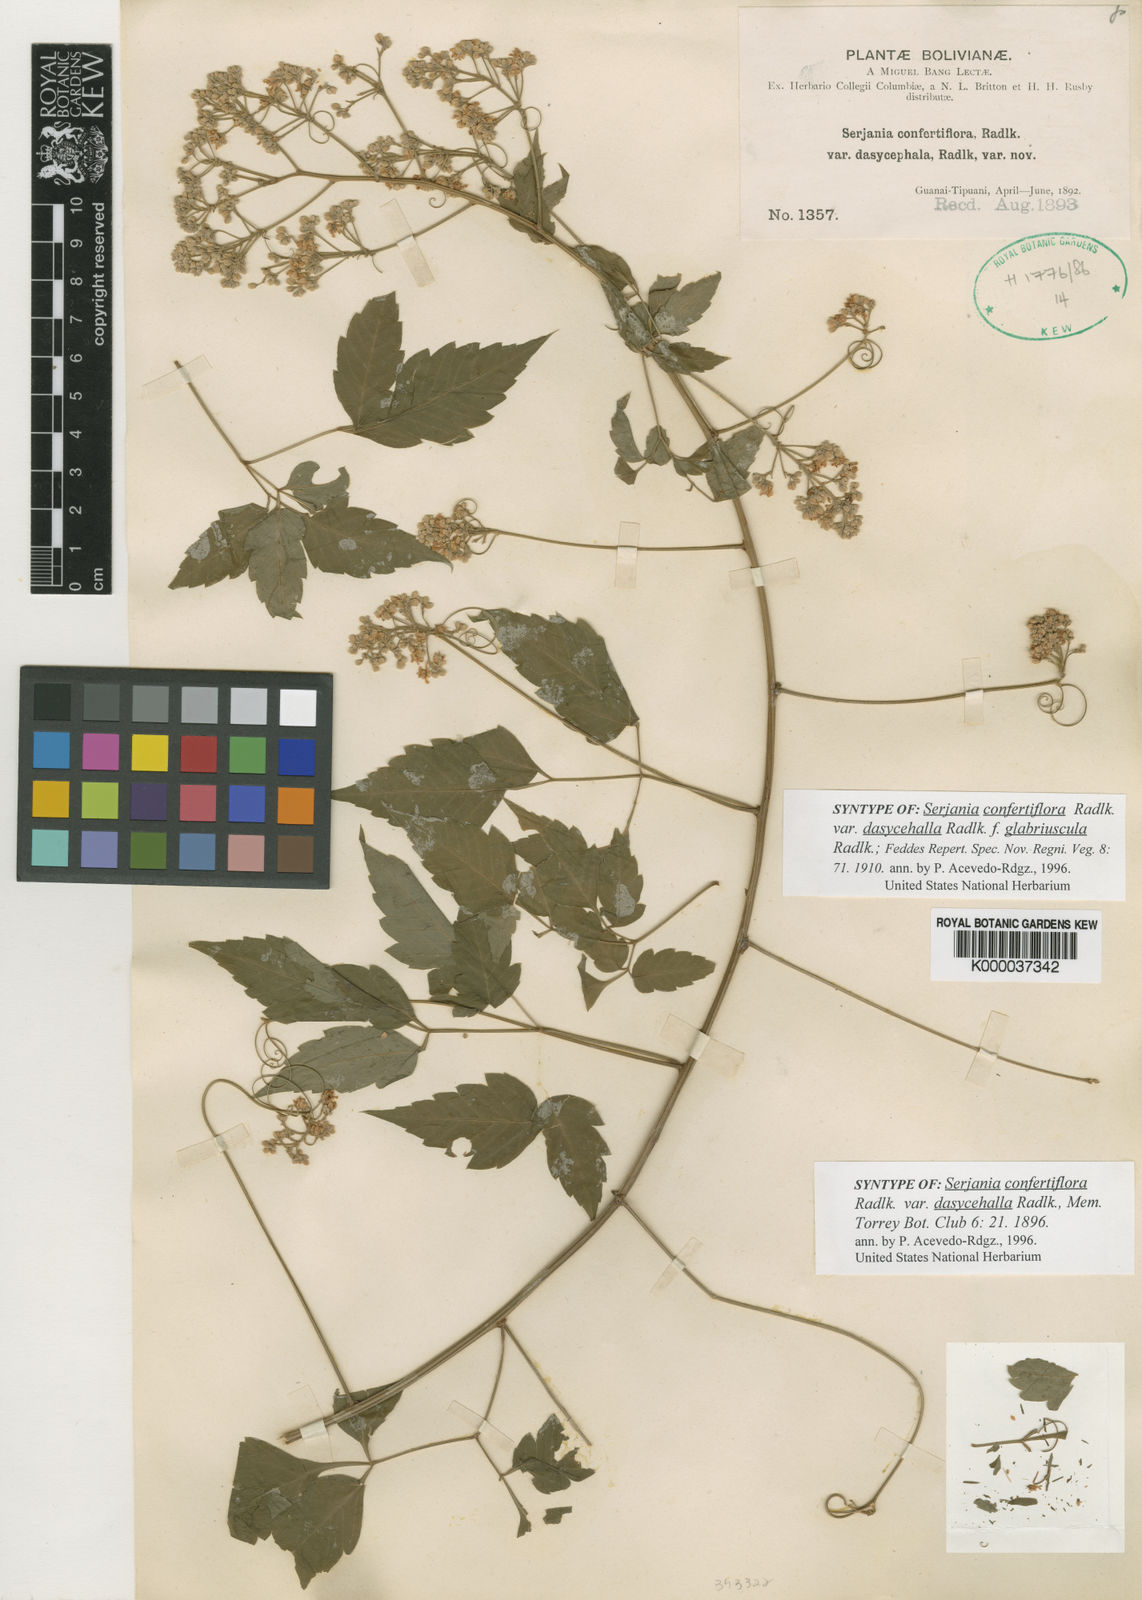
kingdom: Plantae
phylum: Tracheophyta
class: Magnoliopsida
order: Sapindales
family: Sapindaceae
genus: Serjania
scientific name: Serjania confertiflora
